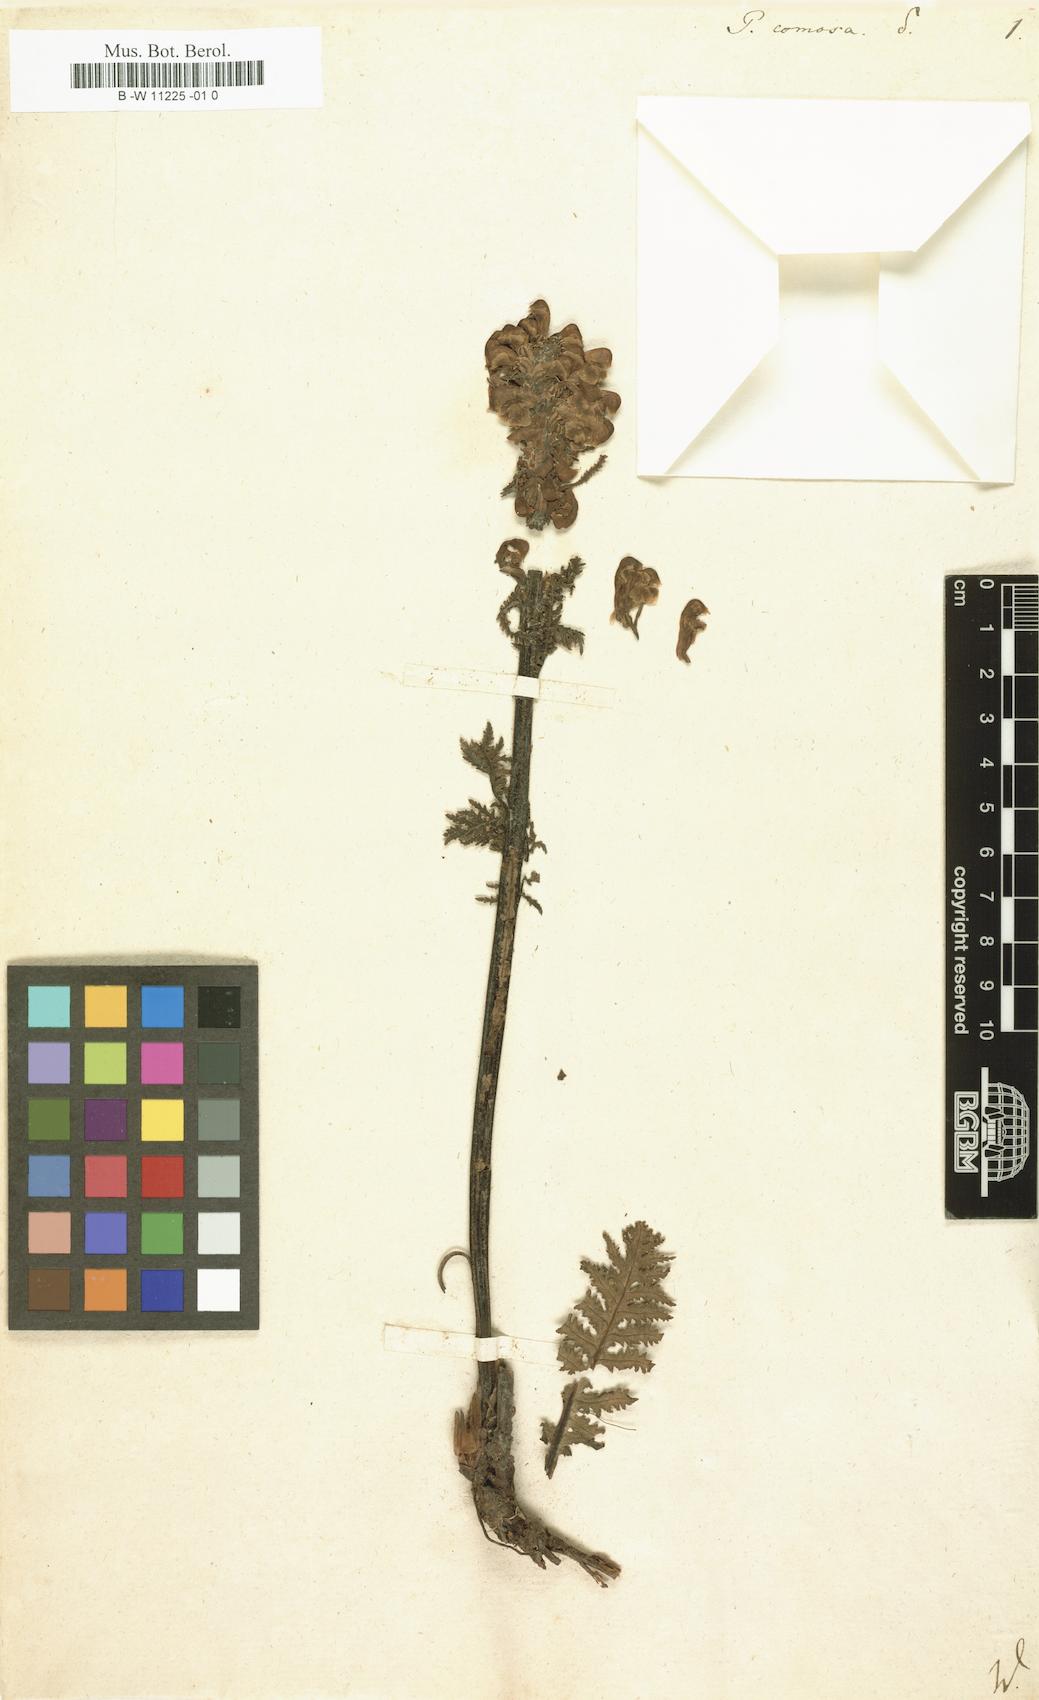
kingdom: Plantae
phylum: Tracheophyta
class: Magnoliopsida
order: Lamiales
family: Orobanchaceae
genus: Pedicularis
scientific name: Pedicularis comosa
